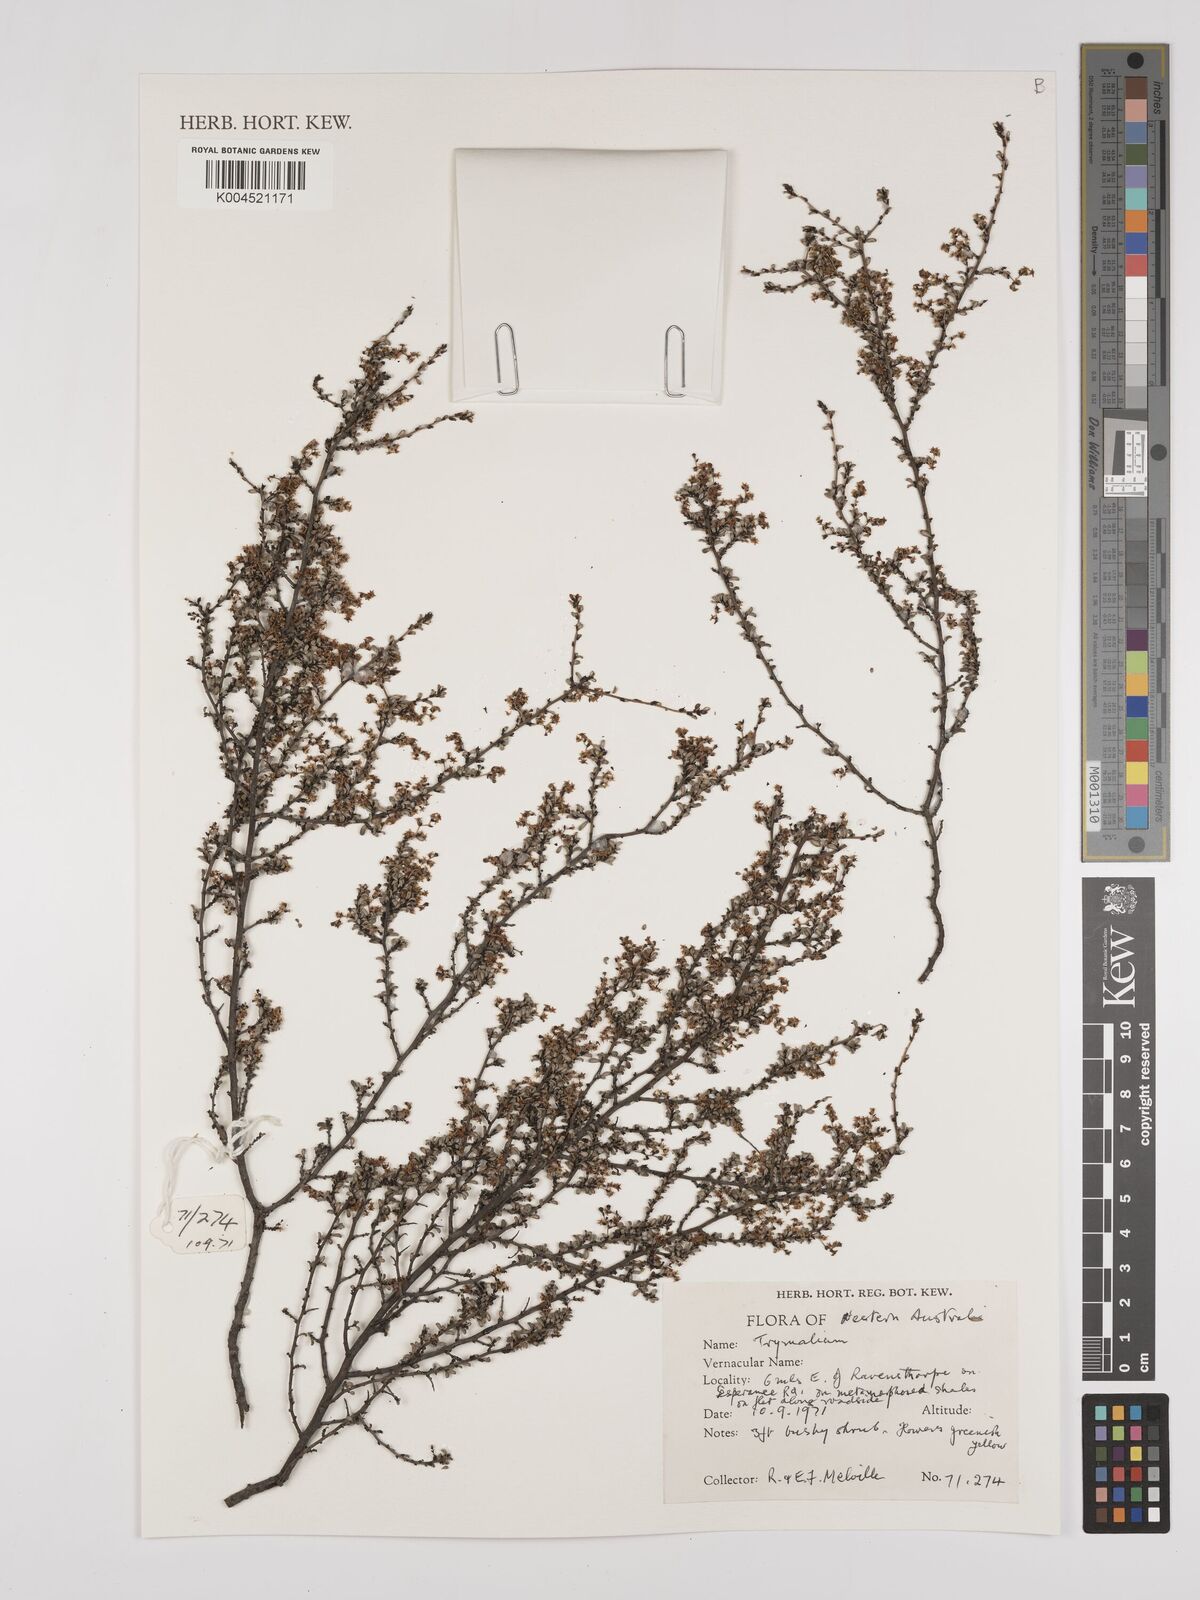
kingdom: Plantae
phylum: Tracheophyta
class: Magnoliopsida
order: Rosales
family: Rhamnaceae
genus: Trymalium
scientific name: Trymalium
